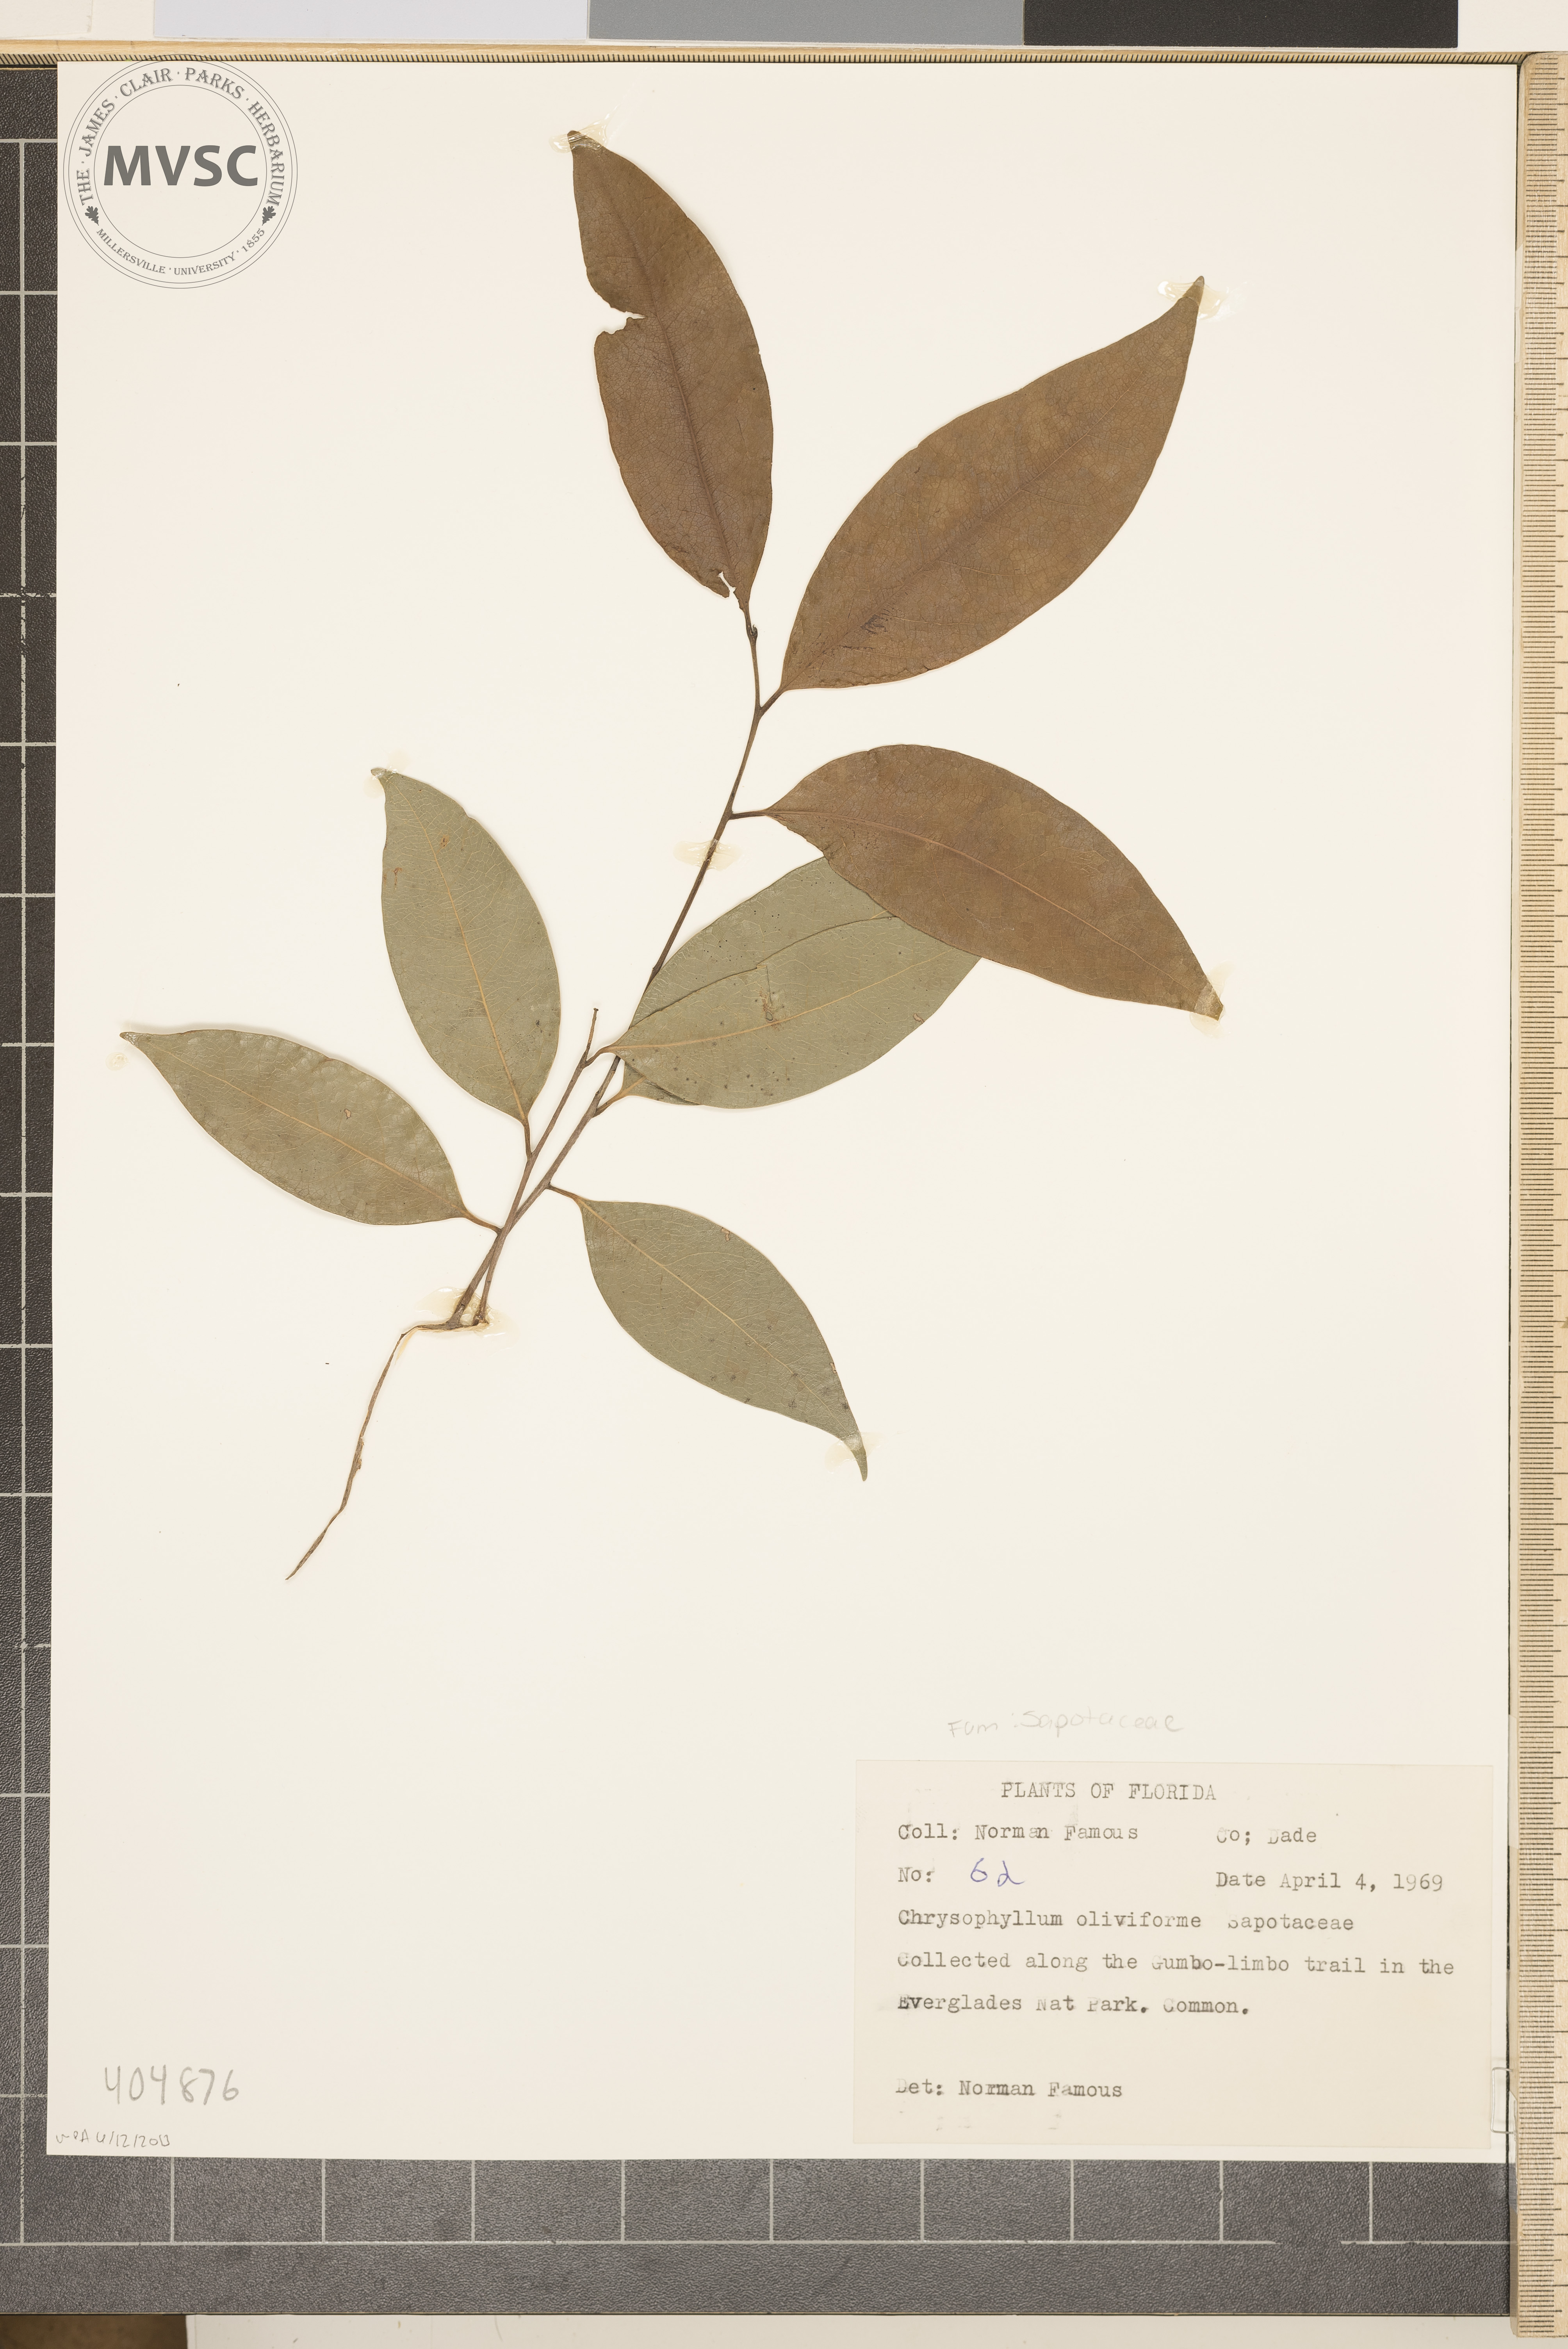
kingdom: Plantae
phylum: Tracheophyta
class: Magnoliopsida
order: Ericales
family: Sapotaceae
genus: Chrysophyllum
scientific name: Chrysophyllum oliviforme
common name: Satinleaf
